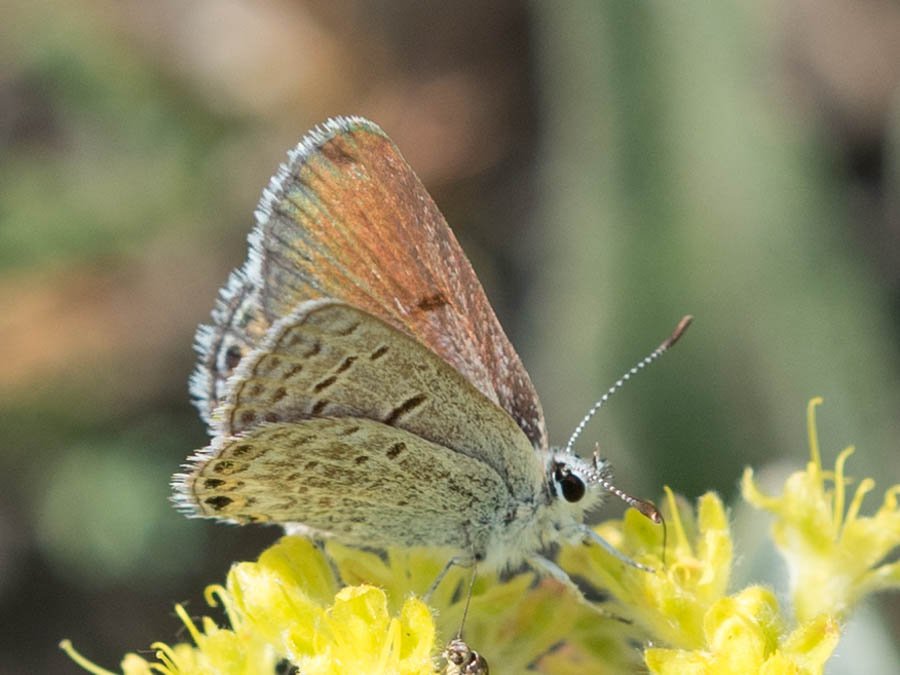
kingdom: Animalia
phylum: Arthropoda
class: Insecta
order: Lepidoptera
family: Lycaenidae
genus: Plebejus
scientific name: Plebejus shasta
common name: Shasta Blue
